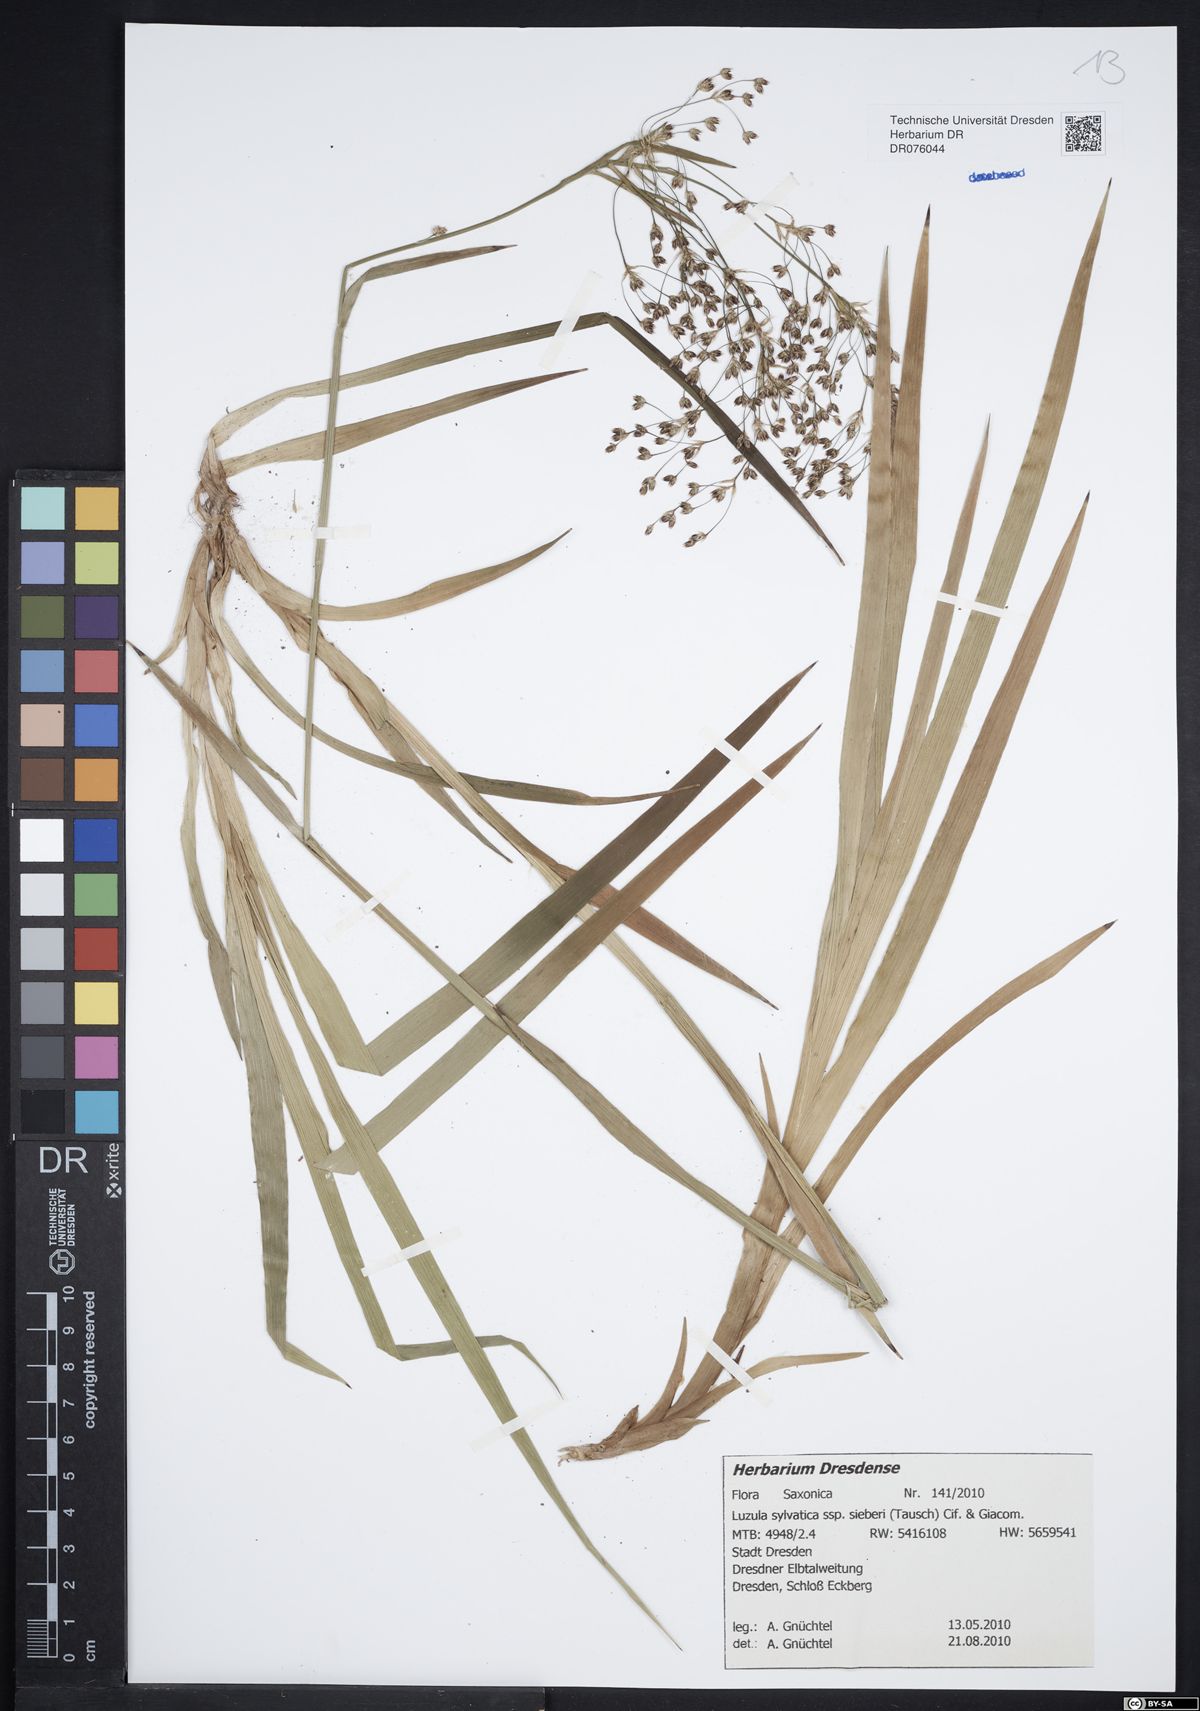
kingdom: Plantae
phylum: Tracheophyta
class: Liliopsida
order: Poales
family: Juncaceae
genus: Luzula
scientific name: Luzula sylvatica
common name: Great wood-rush
